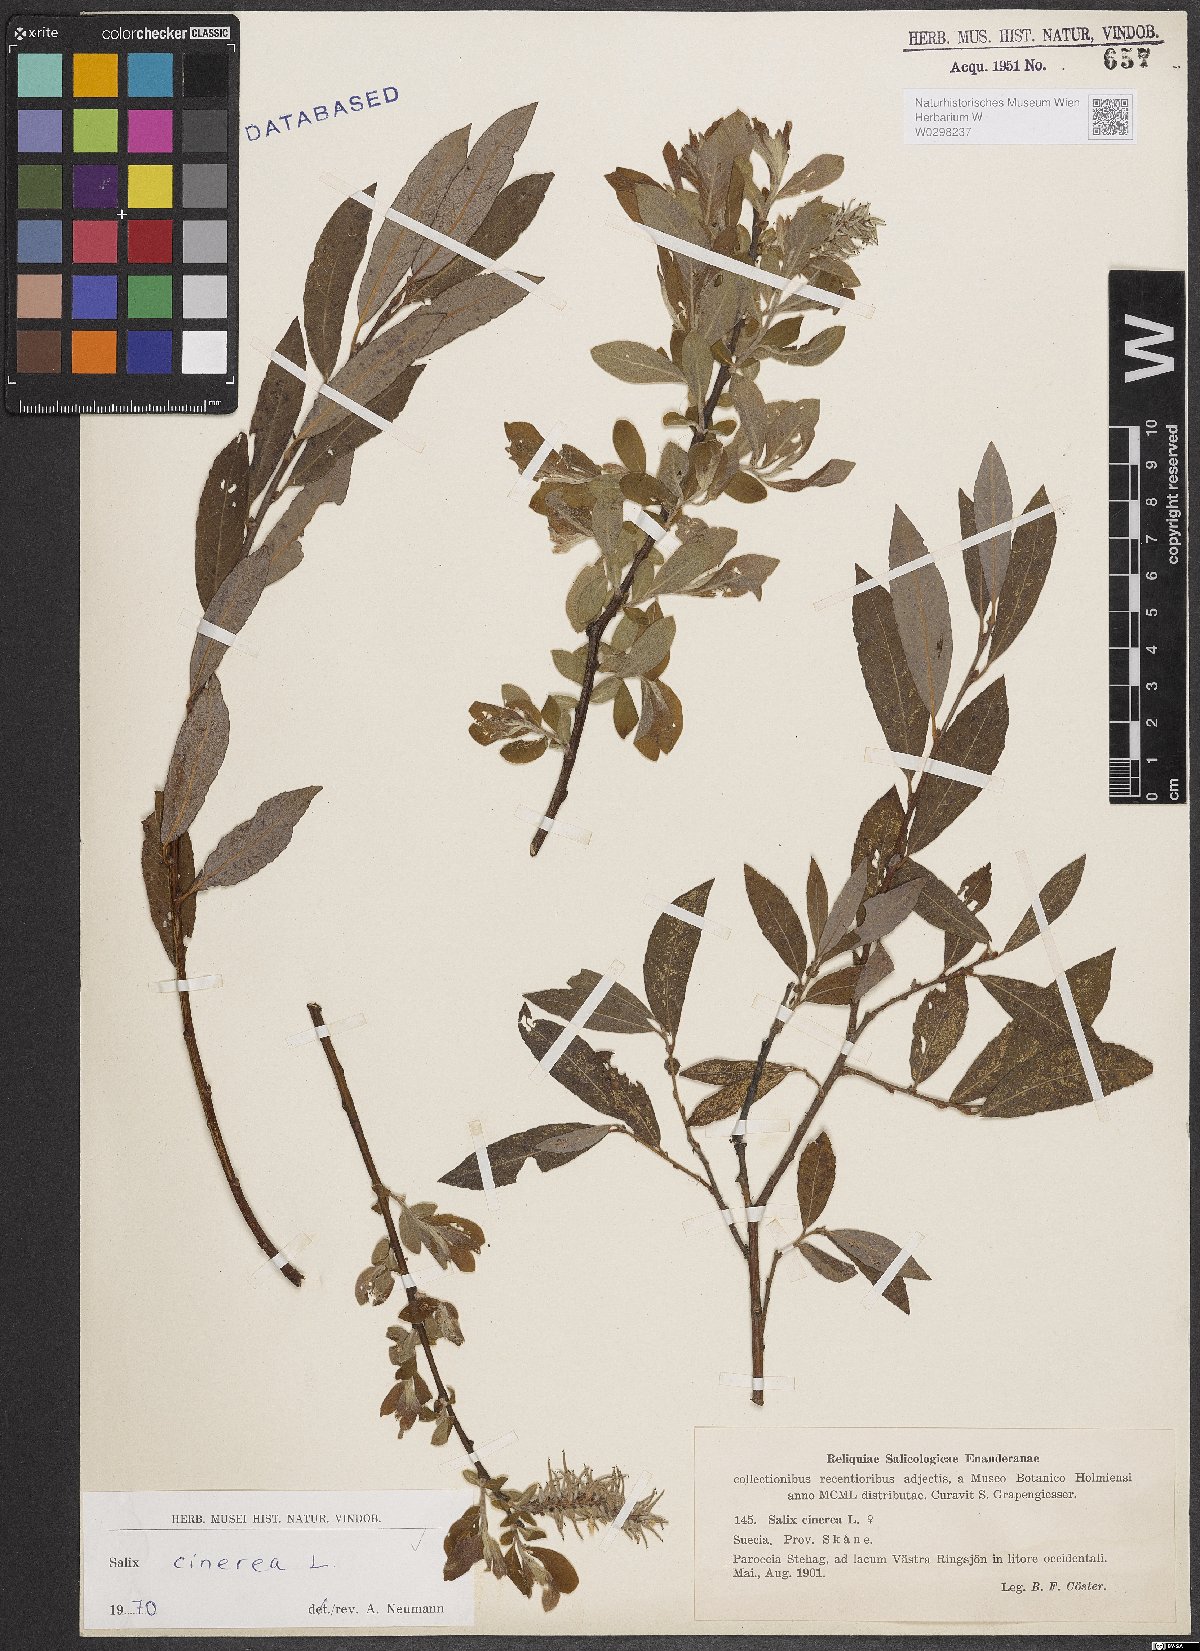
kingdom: Plantae
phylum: Tracheophyta
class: Magnoliopsida
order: Malpighiales
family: Salicaceae
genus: Salix
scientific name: Salix cinerea
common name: Common sallow
